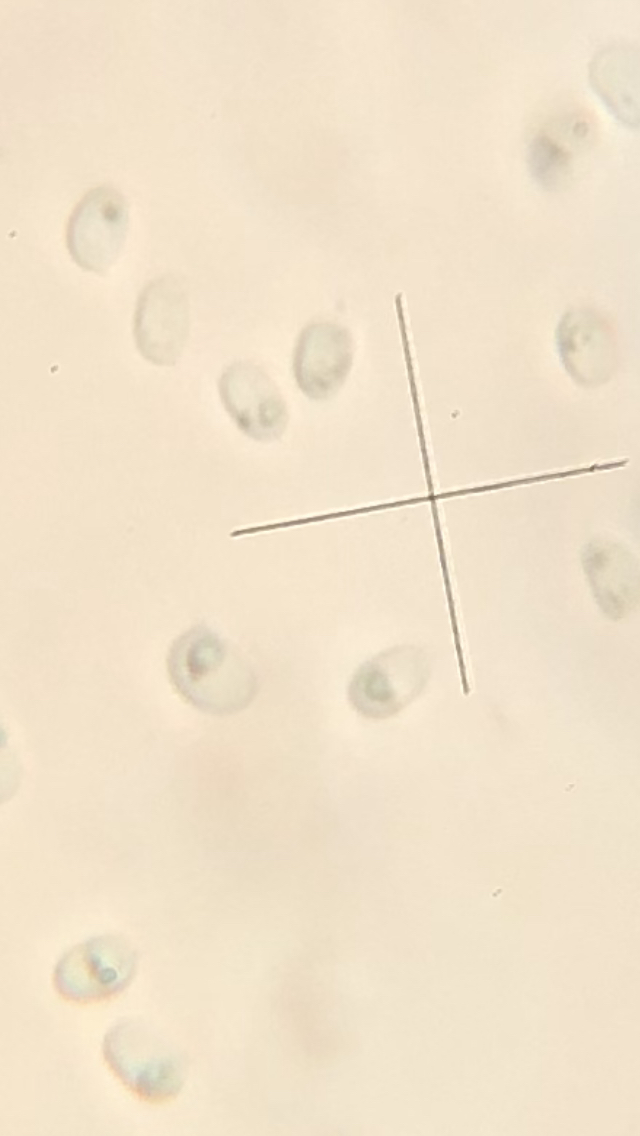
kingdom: Fungi
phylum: Basidiomycota
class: Agaricomycetes
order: Hymenochaetales
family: Schizoporaceae
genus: Schizopora
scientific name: Schizopora paradoxa
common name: hvid tandsvamp
